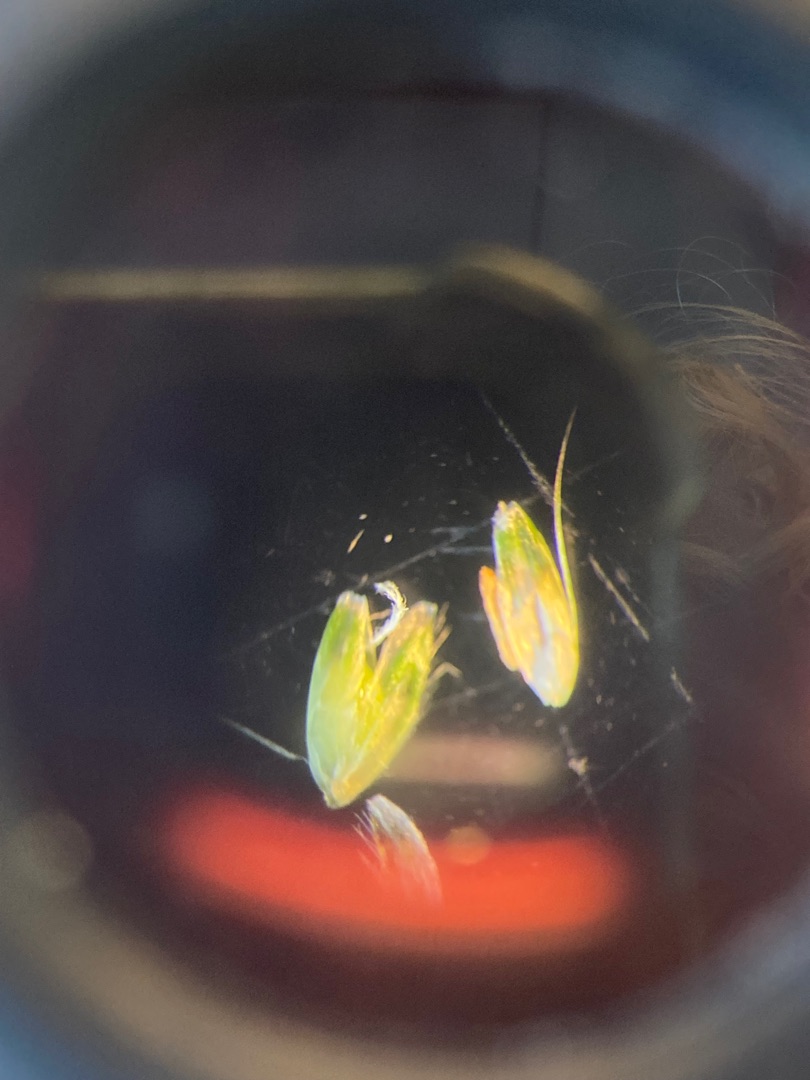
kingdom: Plantae
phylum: Tracheophyta
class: Liliopsida
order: Poales
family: Poaceae
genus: Alopecurus
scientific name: Alopecurus geniculatus
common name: Knæbøjet rævehale
